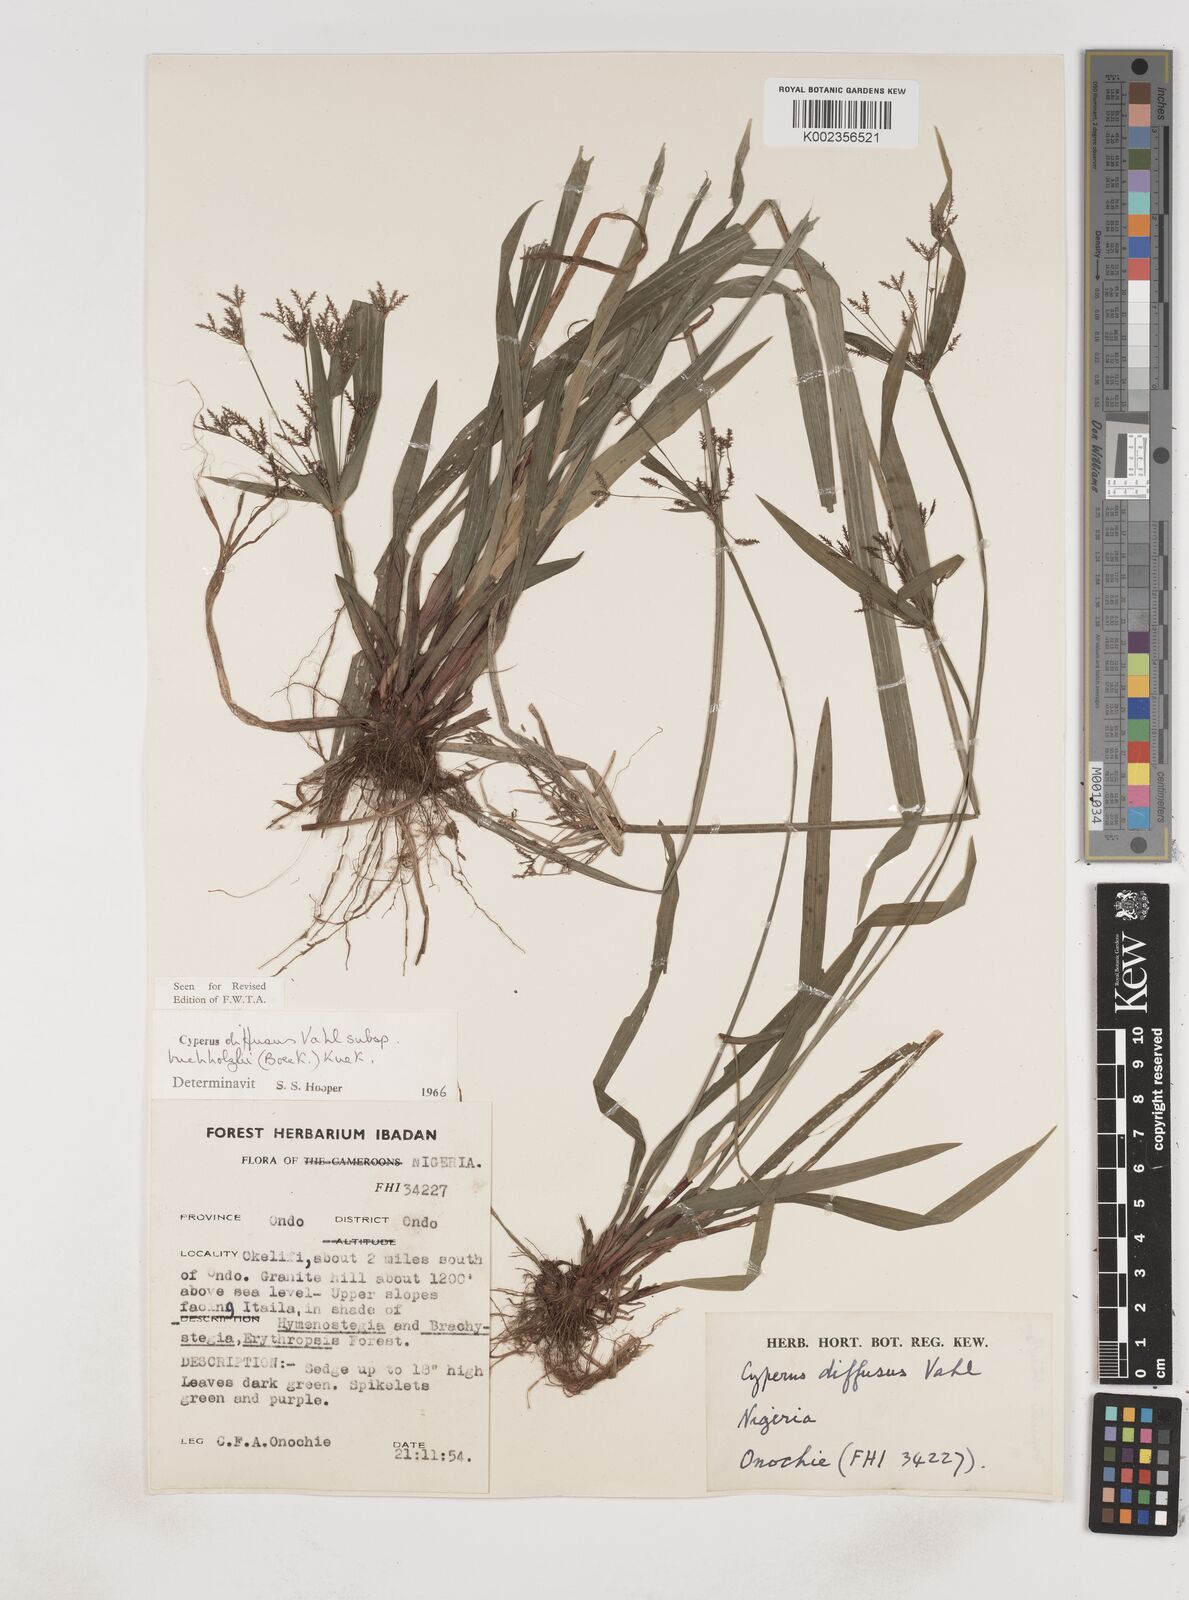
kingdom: Plantae
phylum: Tracheophyta
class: Liliopsida
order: Poales
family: Cyperaceae
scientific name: Cyperaceae
